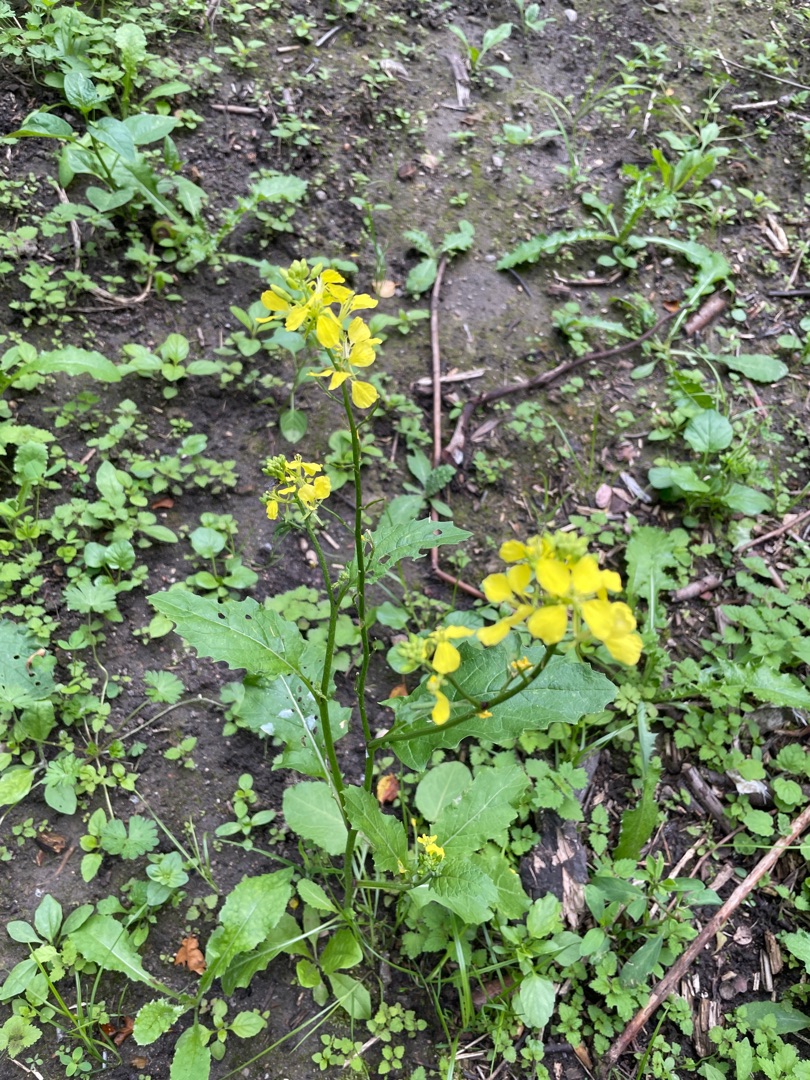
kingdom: Plantae
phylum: Tracheophyta
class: Magnoliopsida
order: Brassicales
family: Brassicaceae
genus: Sinapis
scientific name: Sinapis arvensis
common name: Ager-sennep
